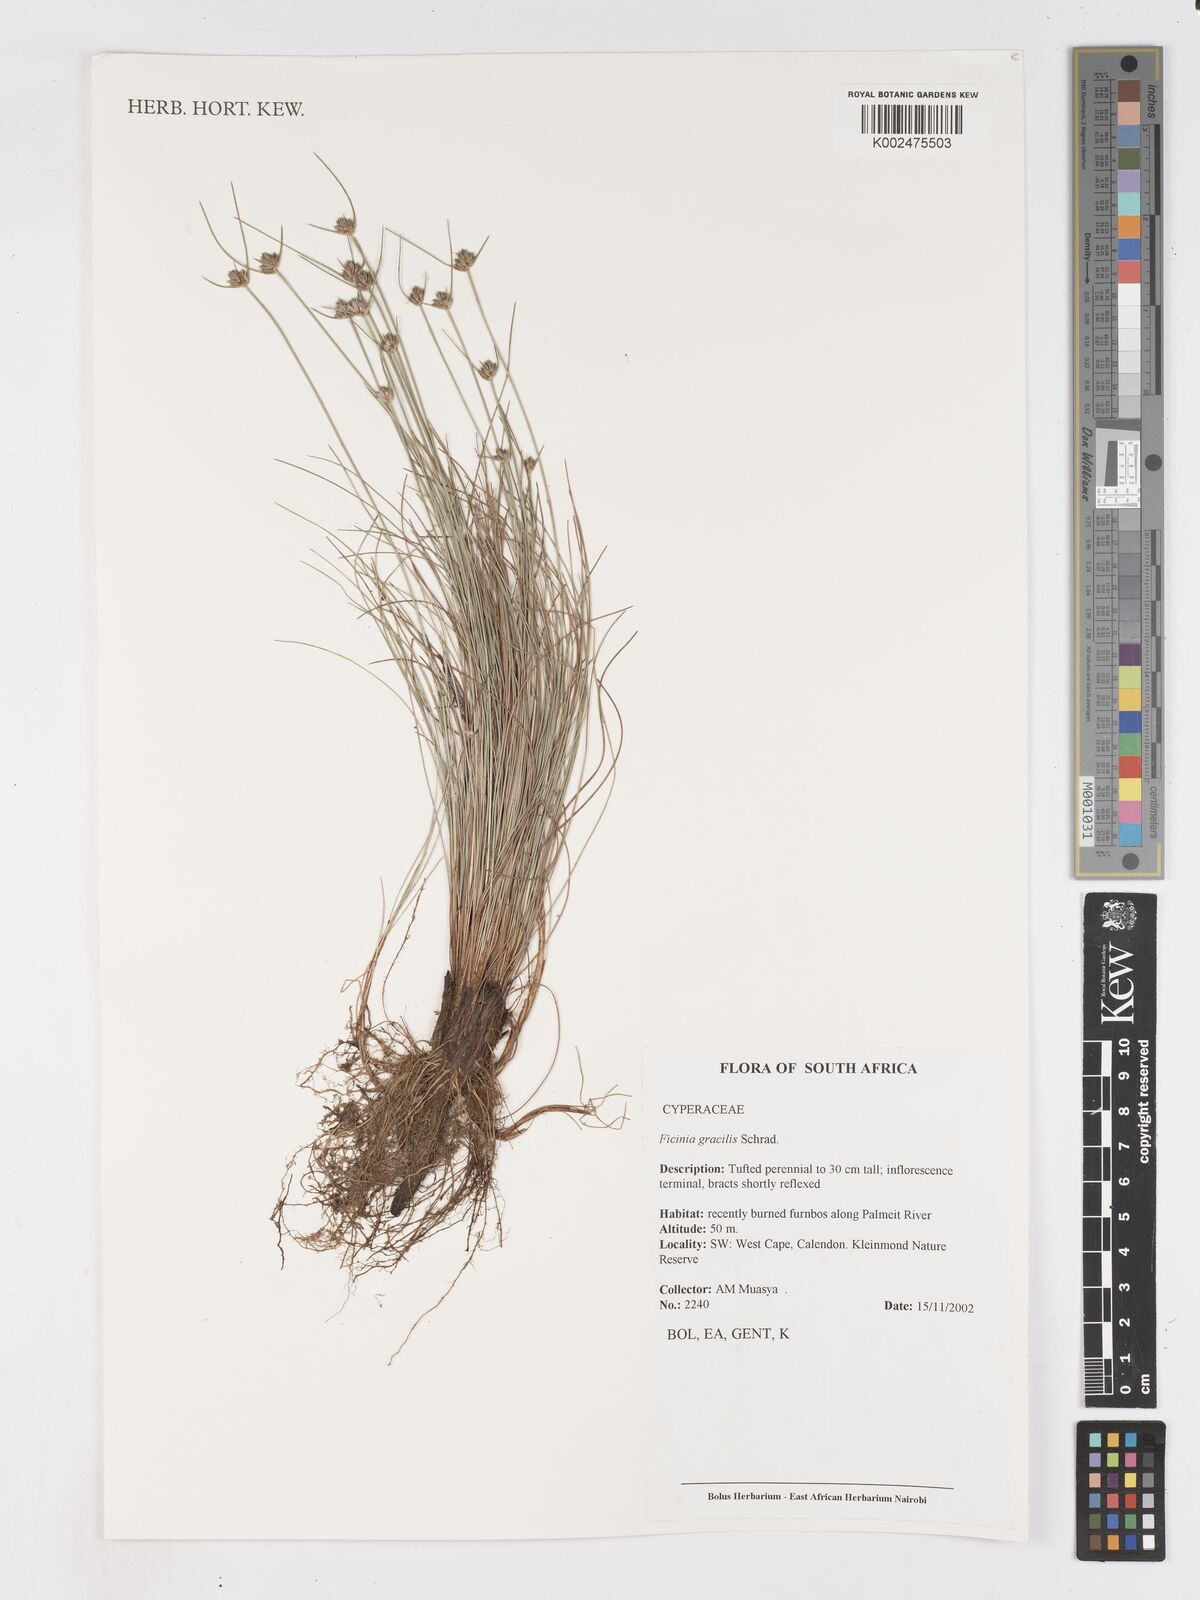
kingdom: Plantae
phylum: Tracheophyta
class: Liliopsida
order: Poales
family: Cyperaceae
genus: Ficinia
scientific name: Ficinia gracilis
